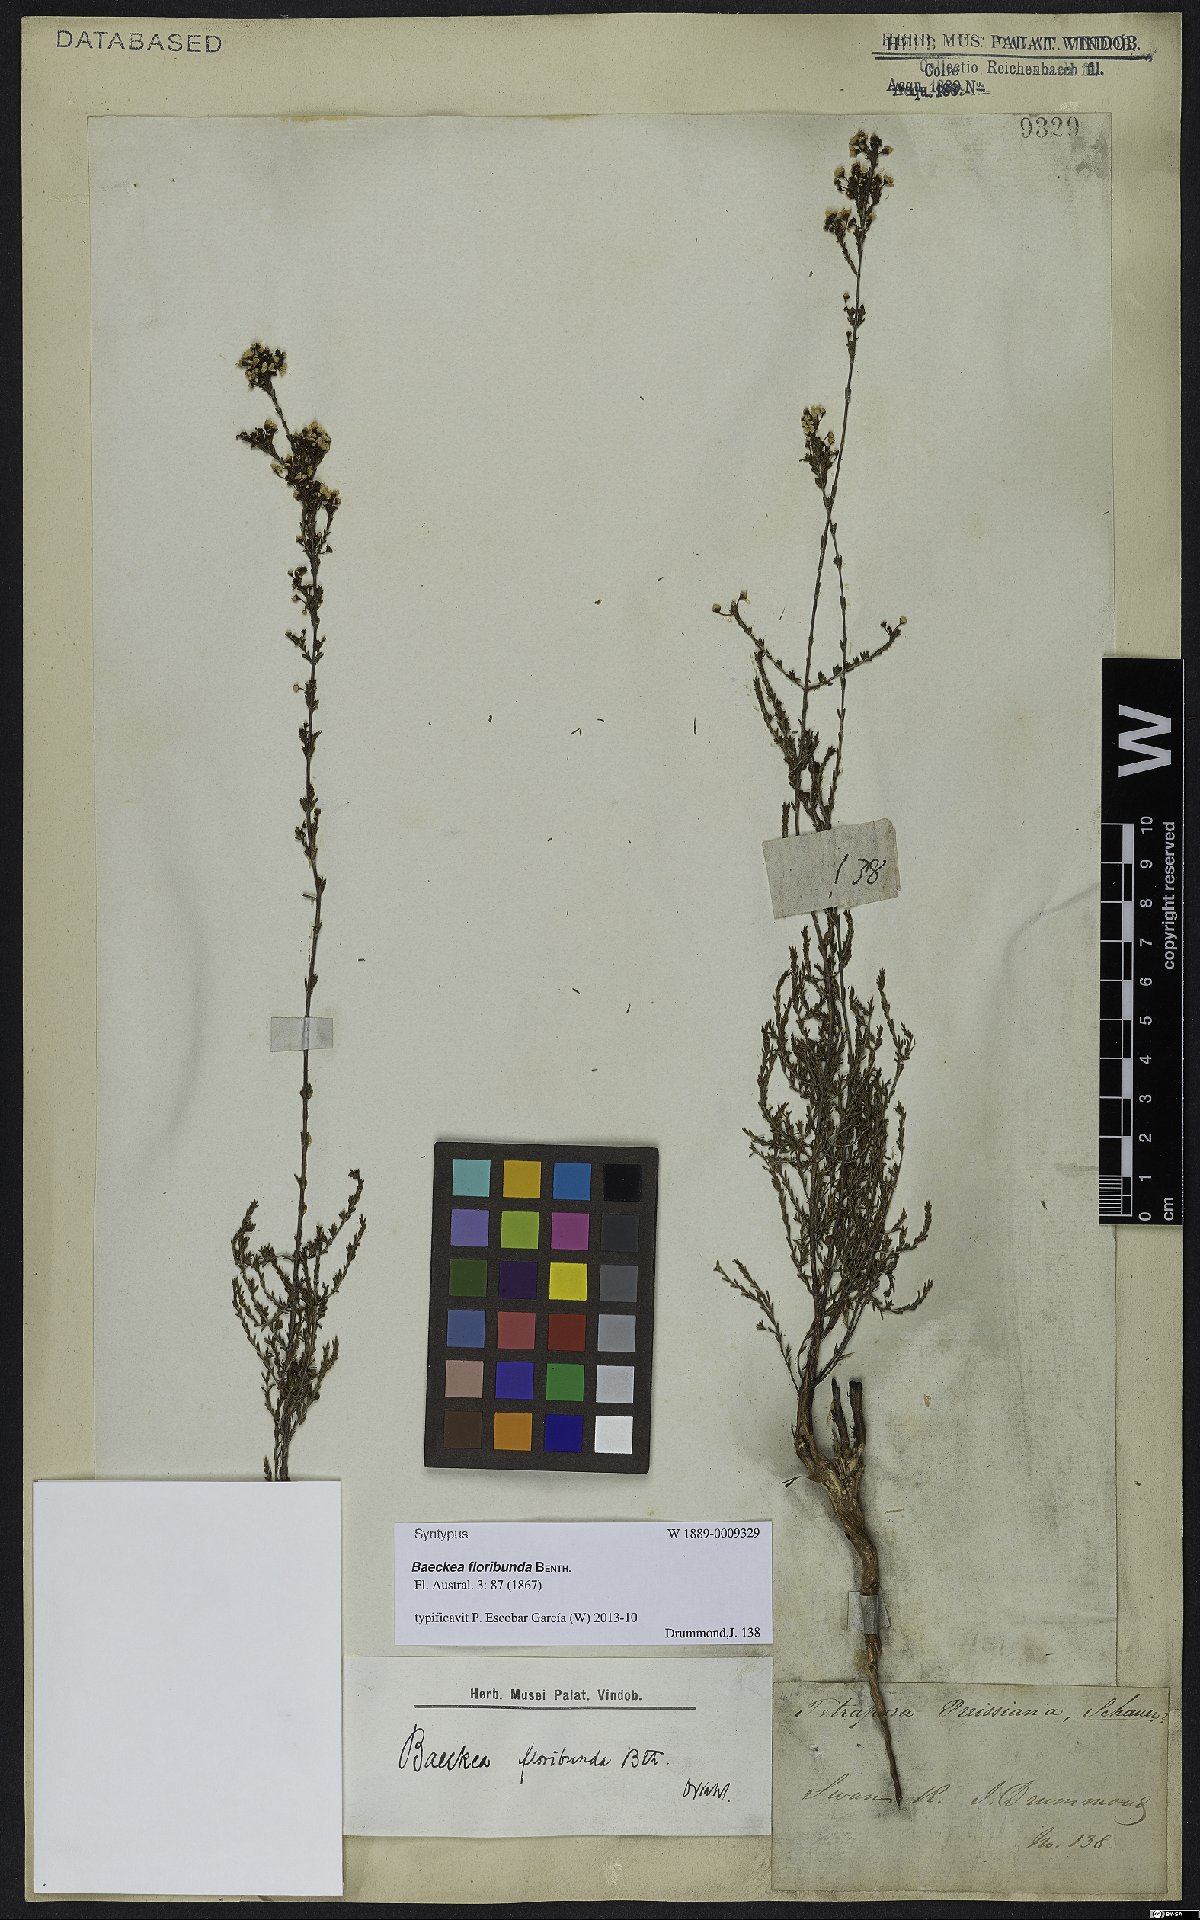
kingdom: Plantae
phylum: Tracheophyta
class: Magnoliopsida
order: Myrtales
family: Myrtaceae
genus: Baeckea
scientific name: Baeckea floribunda
